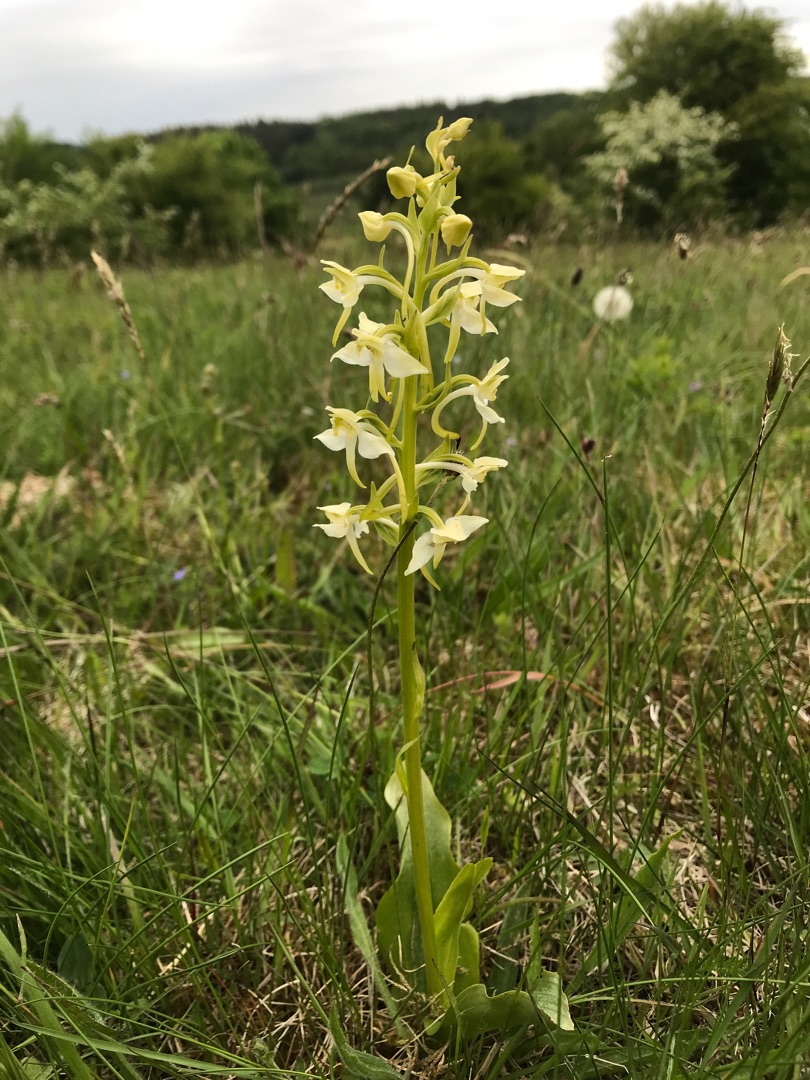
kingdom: Plantae
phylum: Tracheophyta
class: Liliopsida
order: Asparagales
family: Orchidaceae
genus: Platanthera
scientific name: Platanthera chlorantha
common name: Skov-gøgelilje
